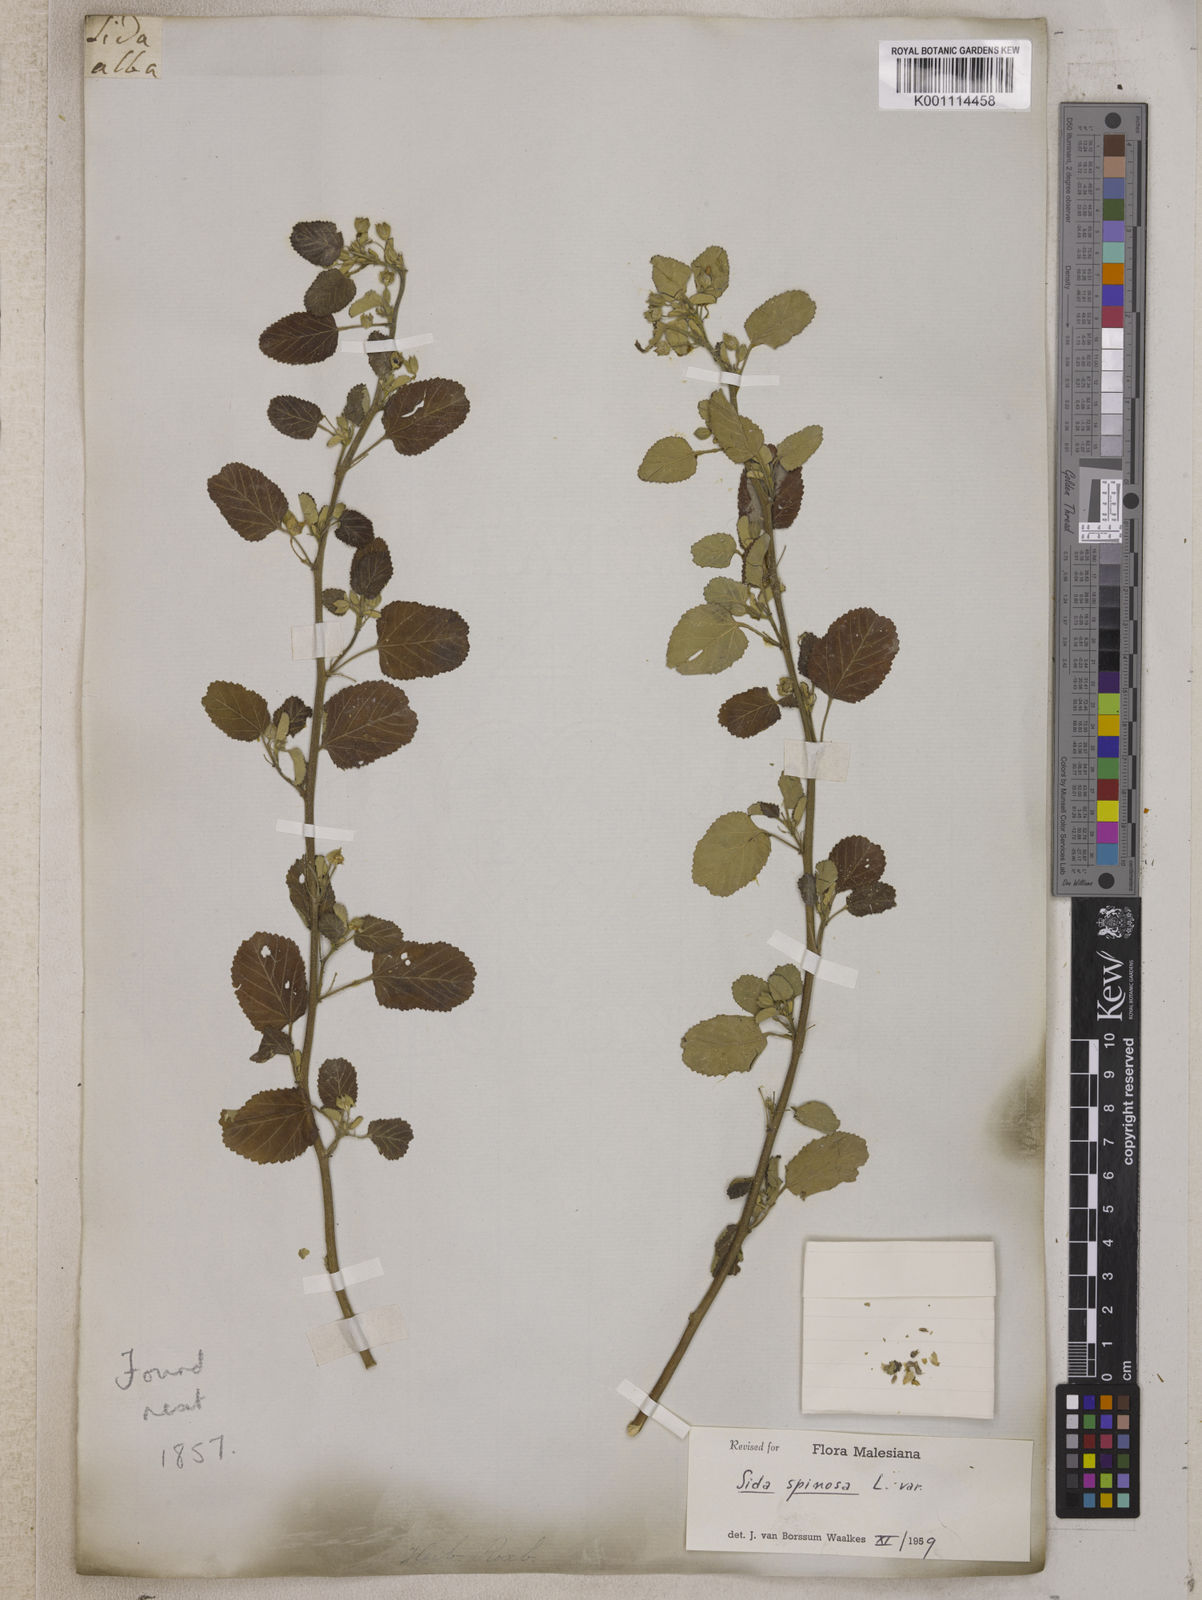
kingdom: Plantae
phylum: Tracheophyta
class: Magnoliopsida
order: Malvales
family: Malvaceae
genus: Herissantia
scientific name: Herissantia crispa
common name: Bladdermallow
